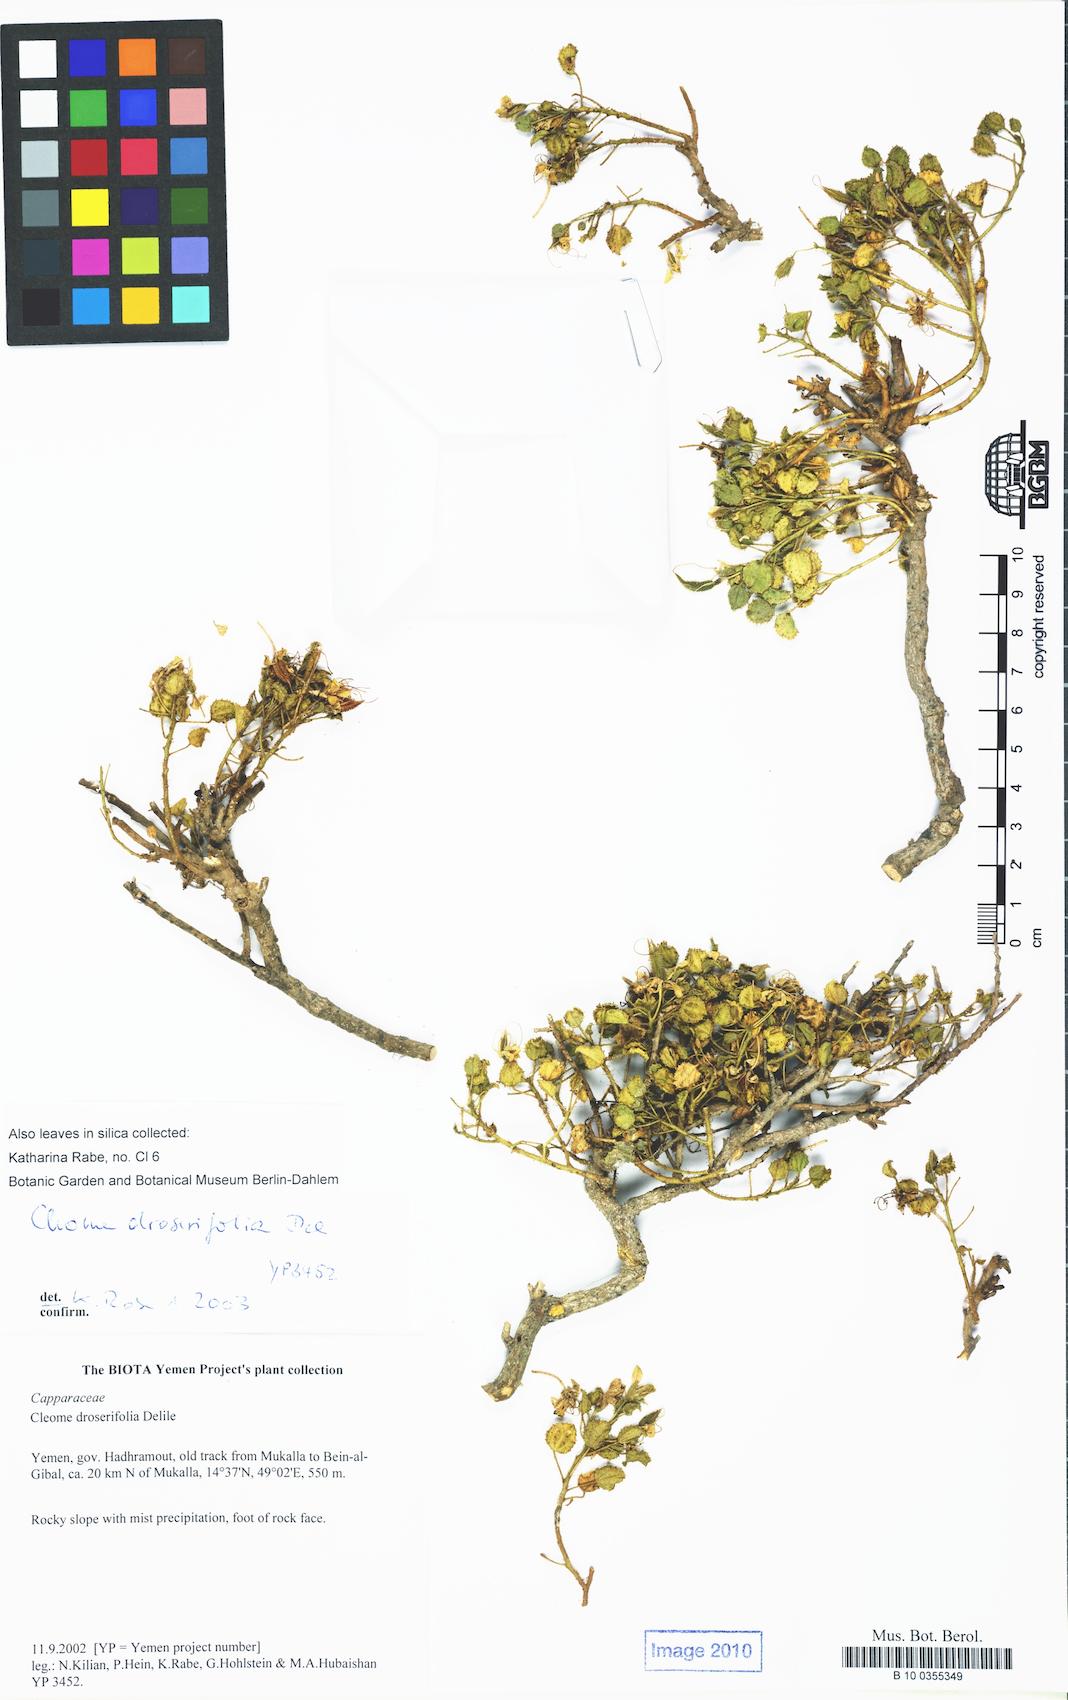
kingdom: Plantae
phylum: Tracheophyta
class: Magnoliopsida
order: Brassicales
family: Cleomaceae
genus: Rorida
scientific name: Rorida droserifolia
